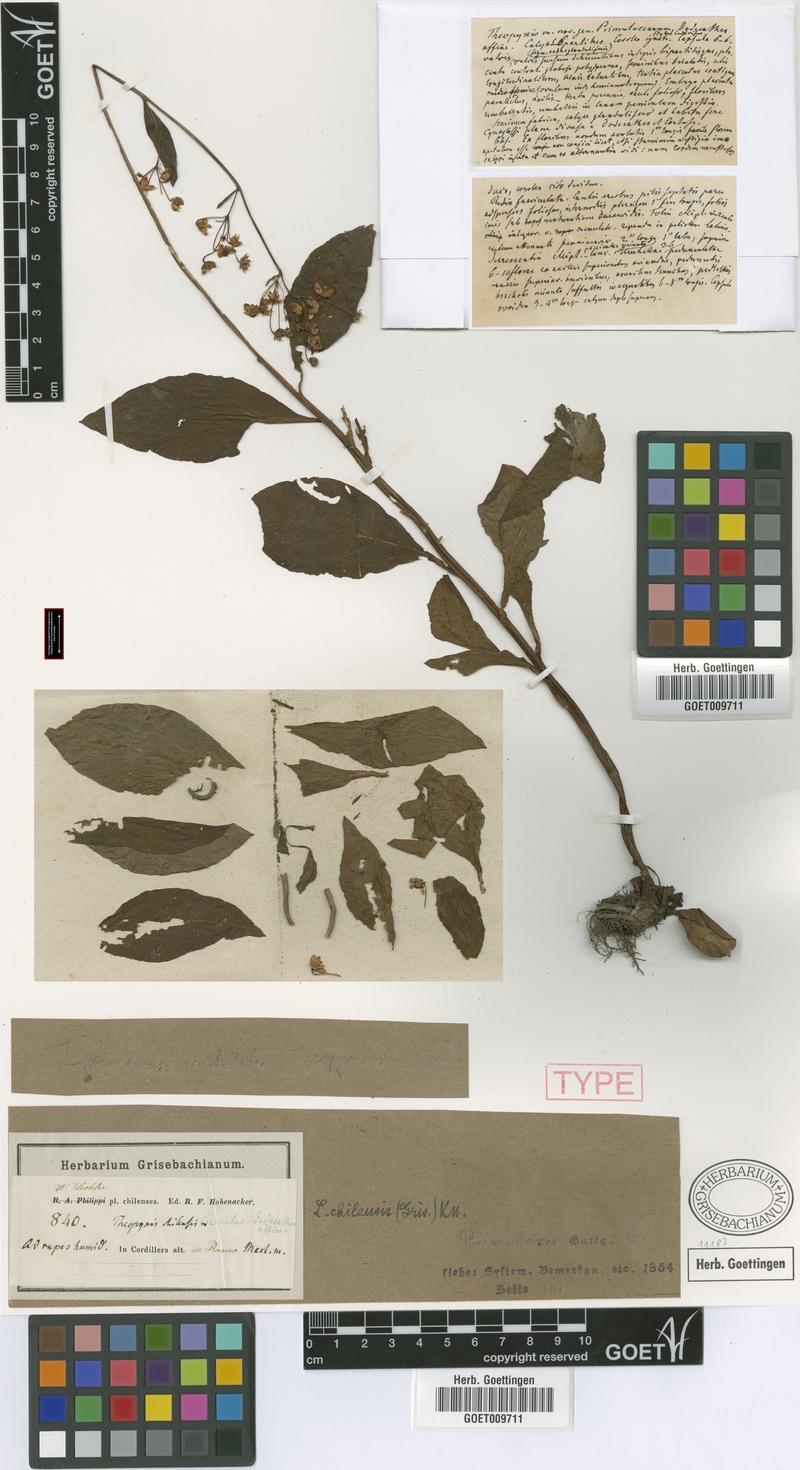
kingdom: Plantae
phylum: Tracheophyta
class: Magnoliopsida
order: Ericales
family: Primulaceae
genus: Lysimachia
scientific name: Lysimachia sertulata
